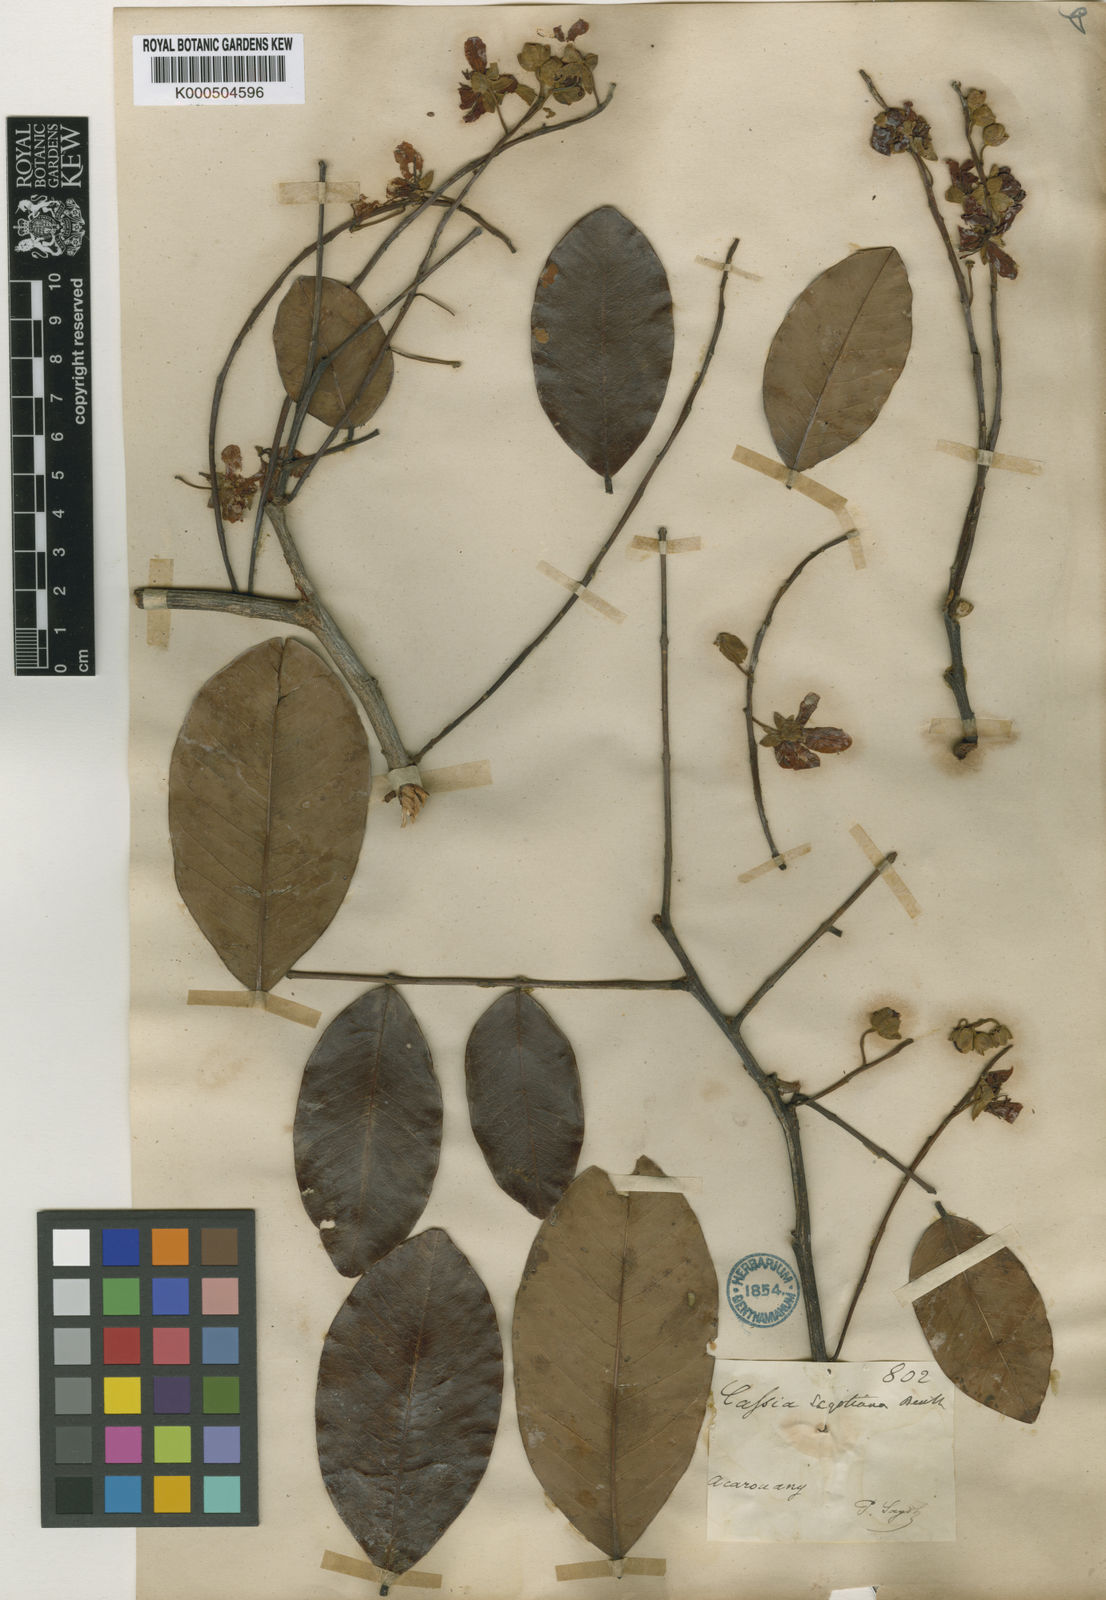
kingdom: Plantae
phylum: Tracheophyta
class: Magnoliopsida
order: Fabales
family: Fabaceae
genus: Cassia
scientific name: Cassia spruceana
